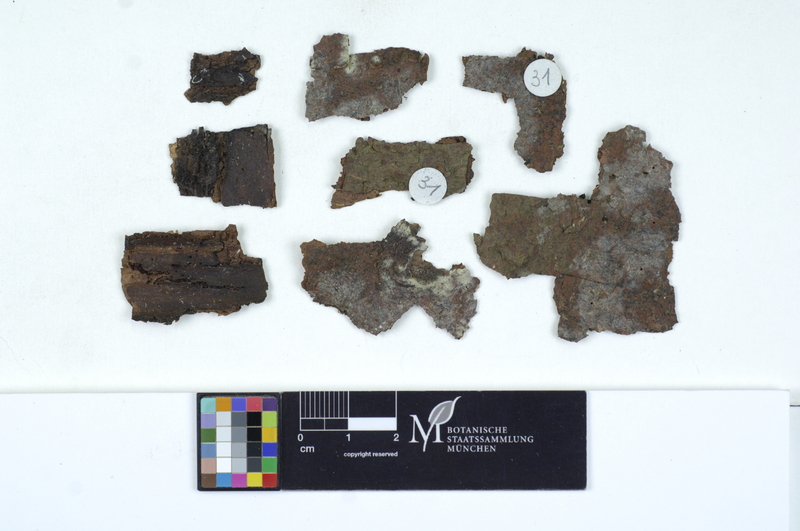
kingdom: Fungi
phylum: Basidiomycota
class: Agaricomycetes
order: Cantharellales
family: Tulasnellaceae
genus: Tulasnella
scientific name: Tulasnella allantospora
